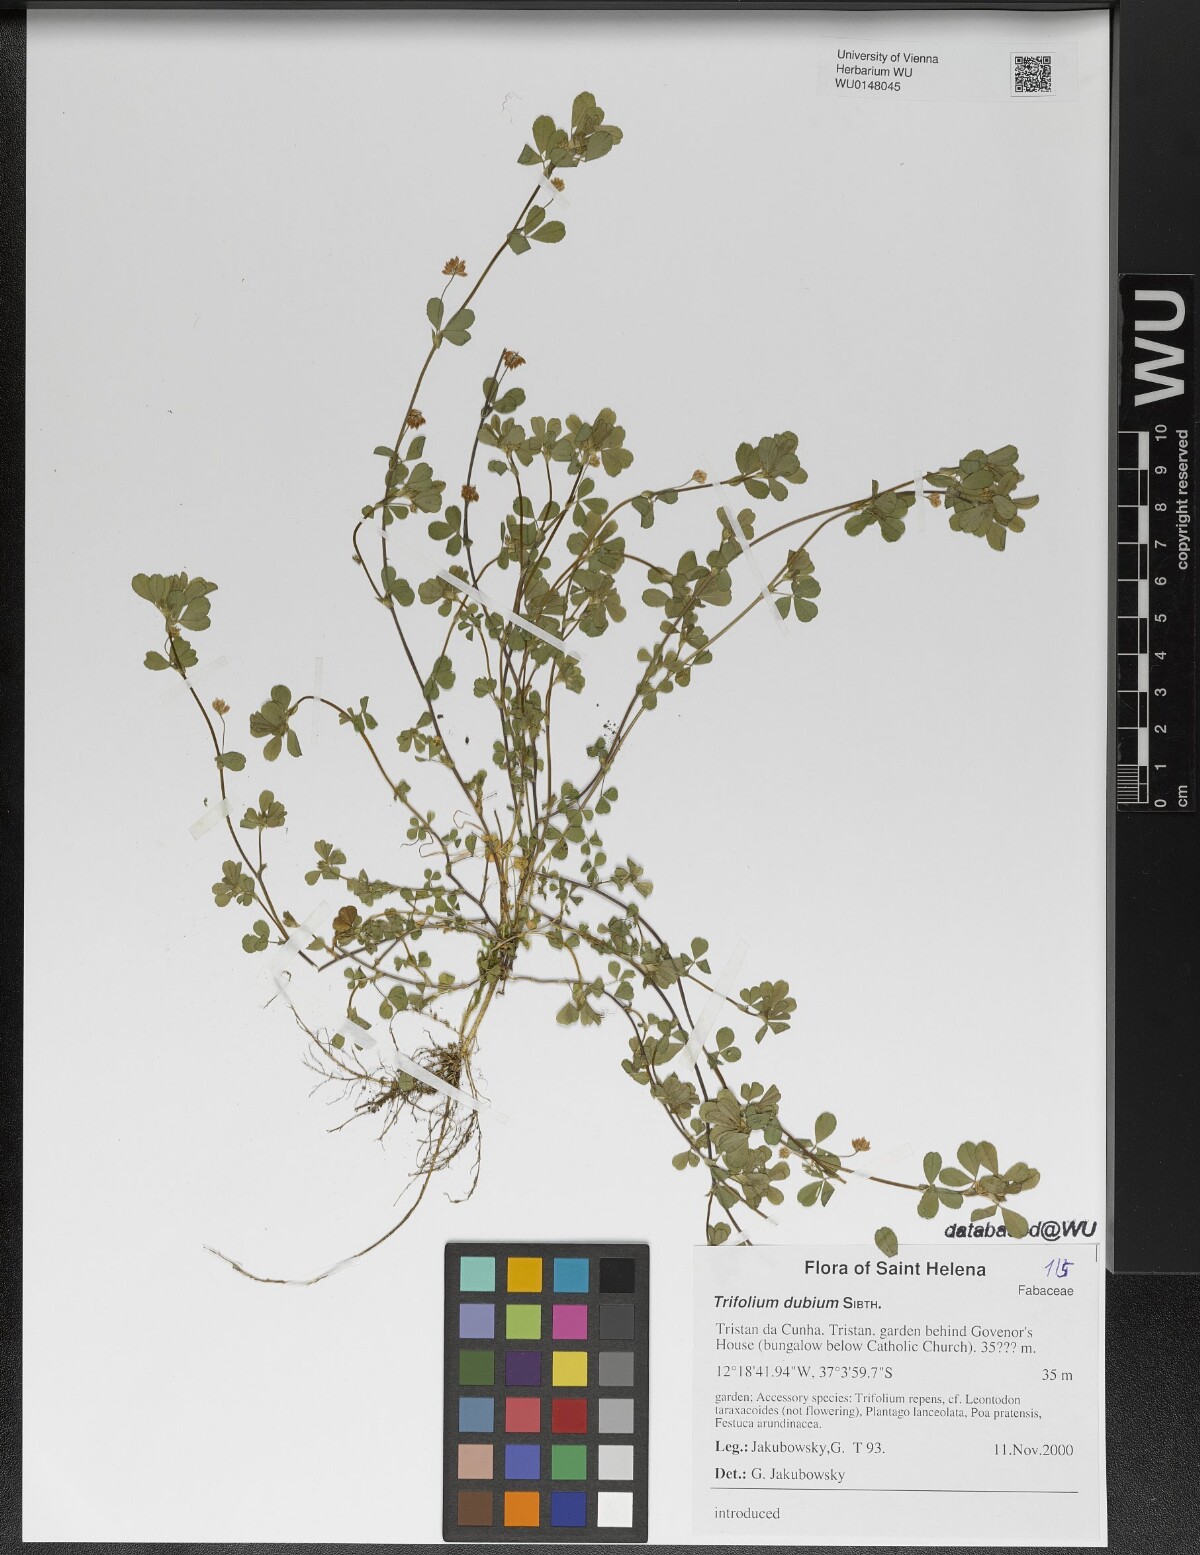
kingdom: Plantae
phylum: Tracheophyta
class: Magnoliopsida
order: Fabales
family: Fabaceae
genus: Trifolium
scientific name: Trifolium dubium
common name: Suckling clover
